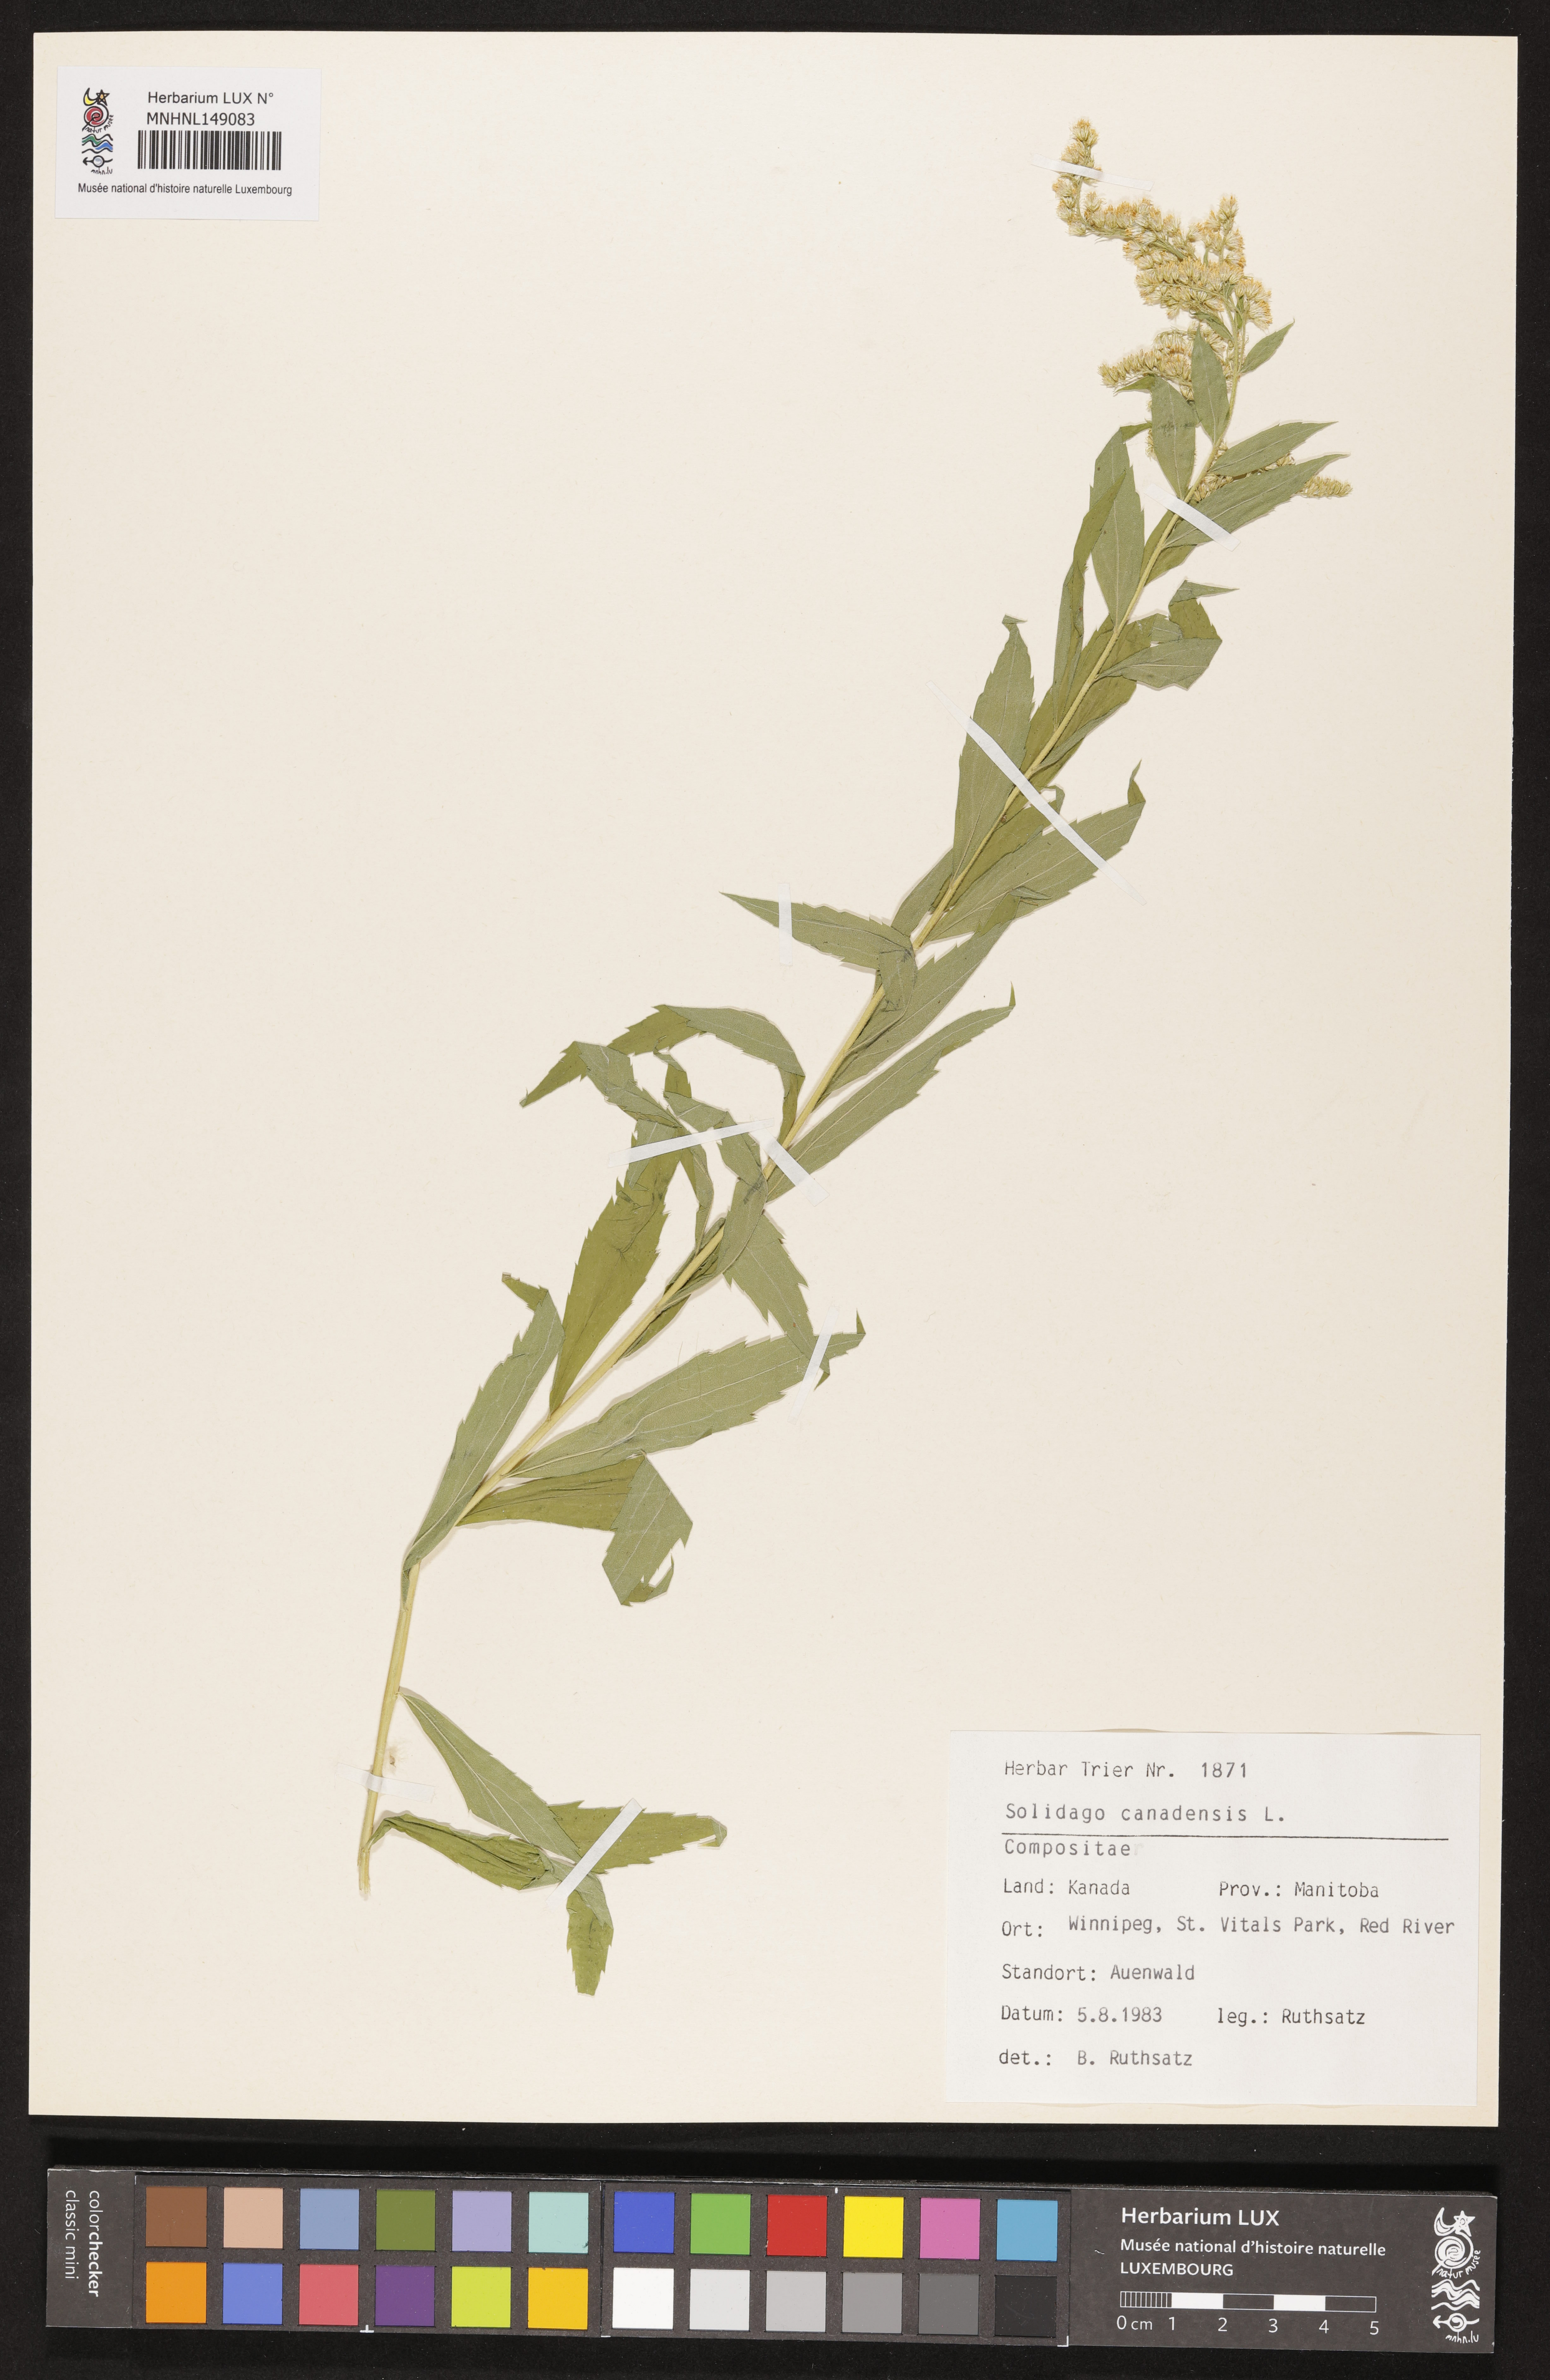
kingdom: Plantae
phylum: Tracheophyta
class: Magnoliopsida
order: Asterales
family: Asteraceae
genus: Solidago
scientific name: Solidago canadensis
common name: Canada goldenrod
